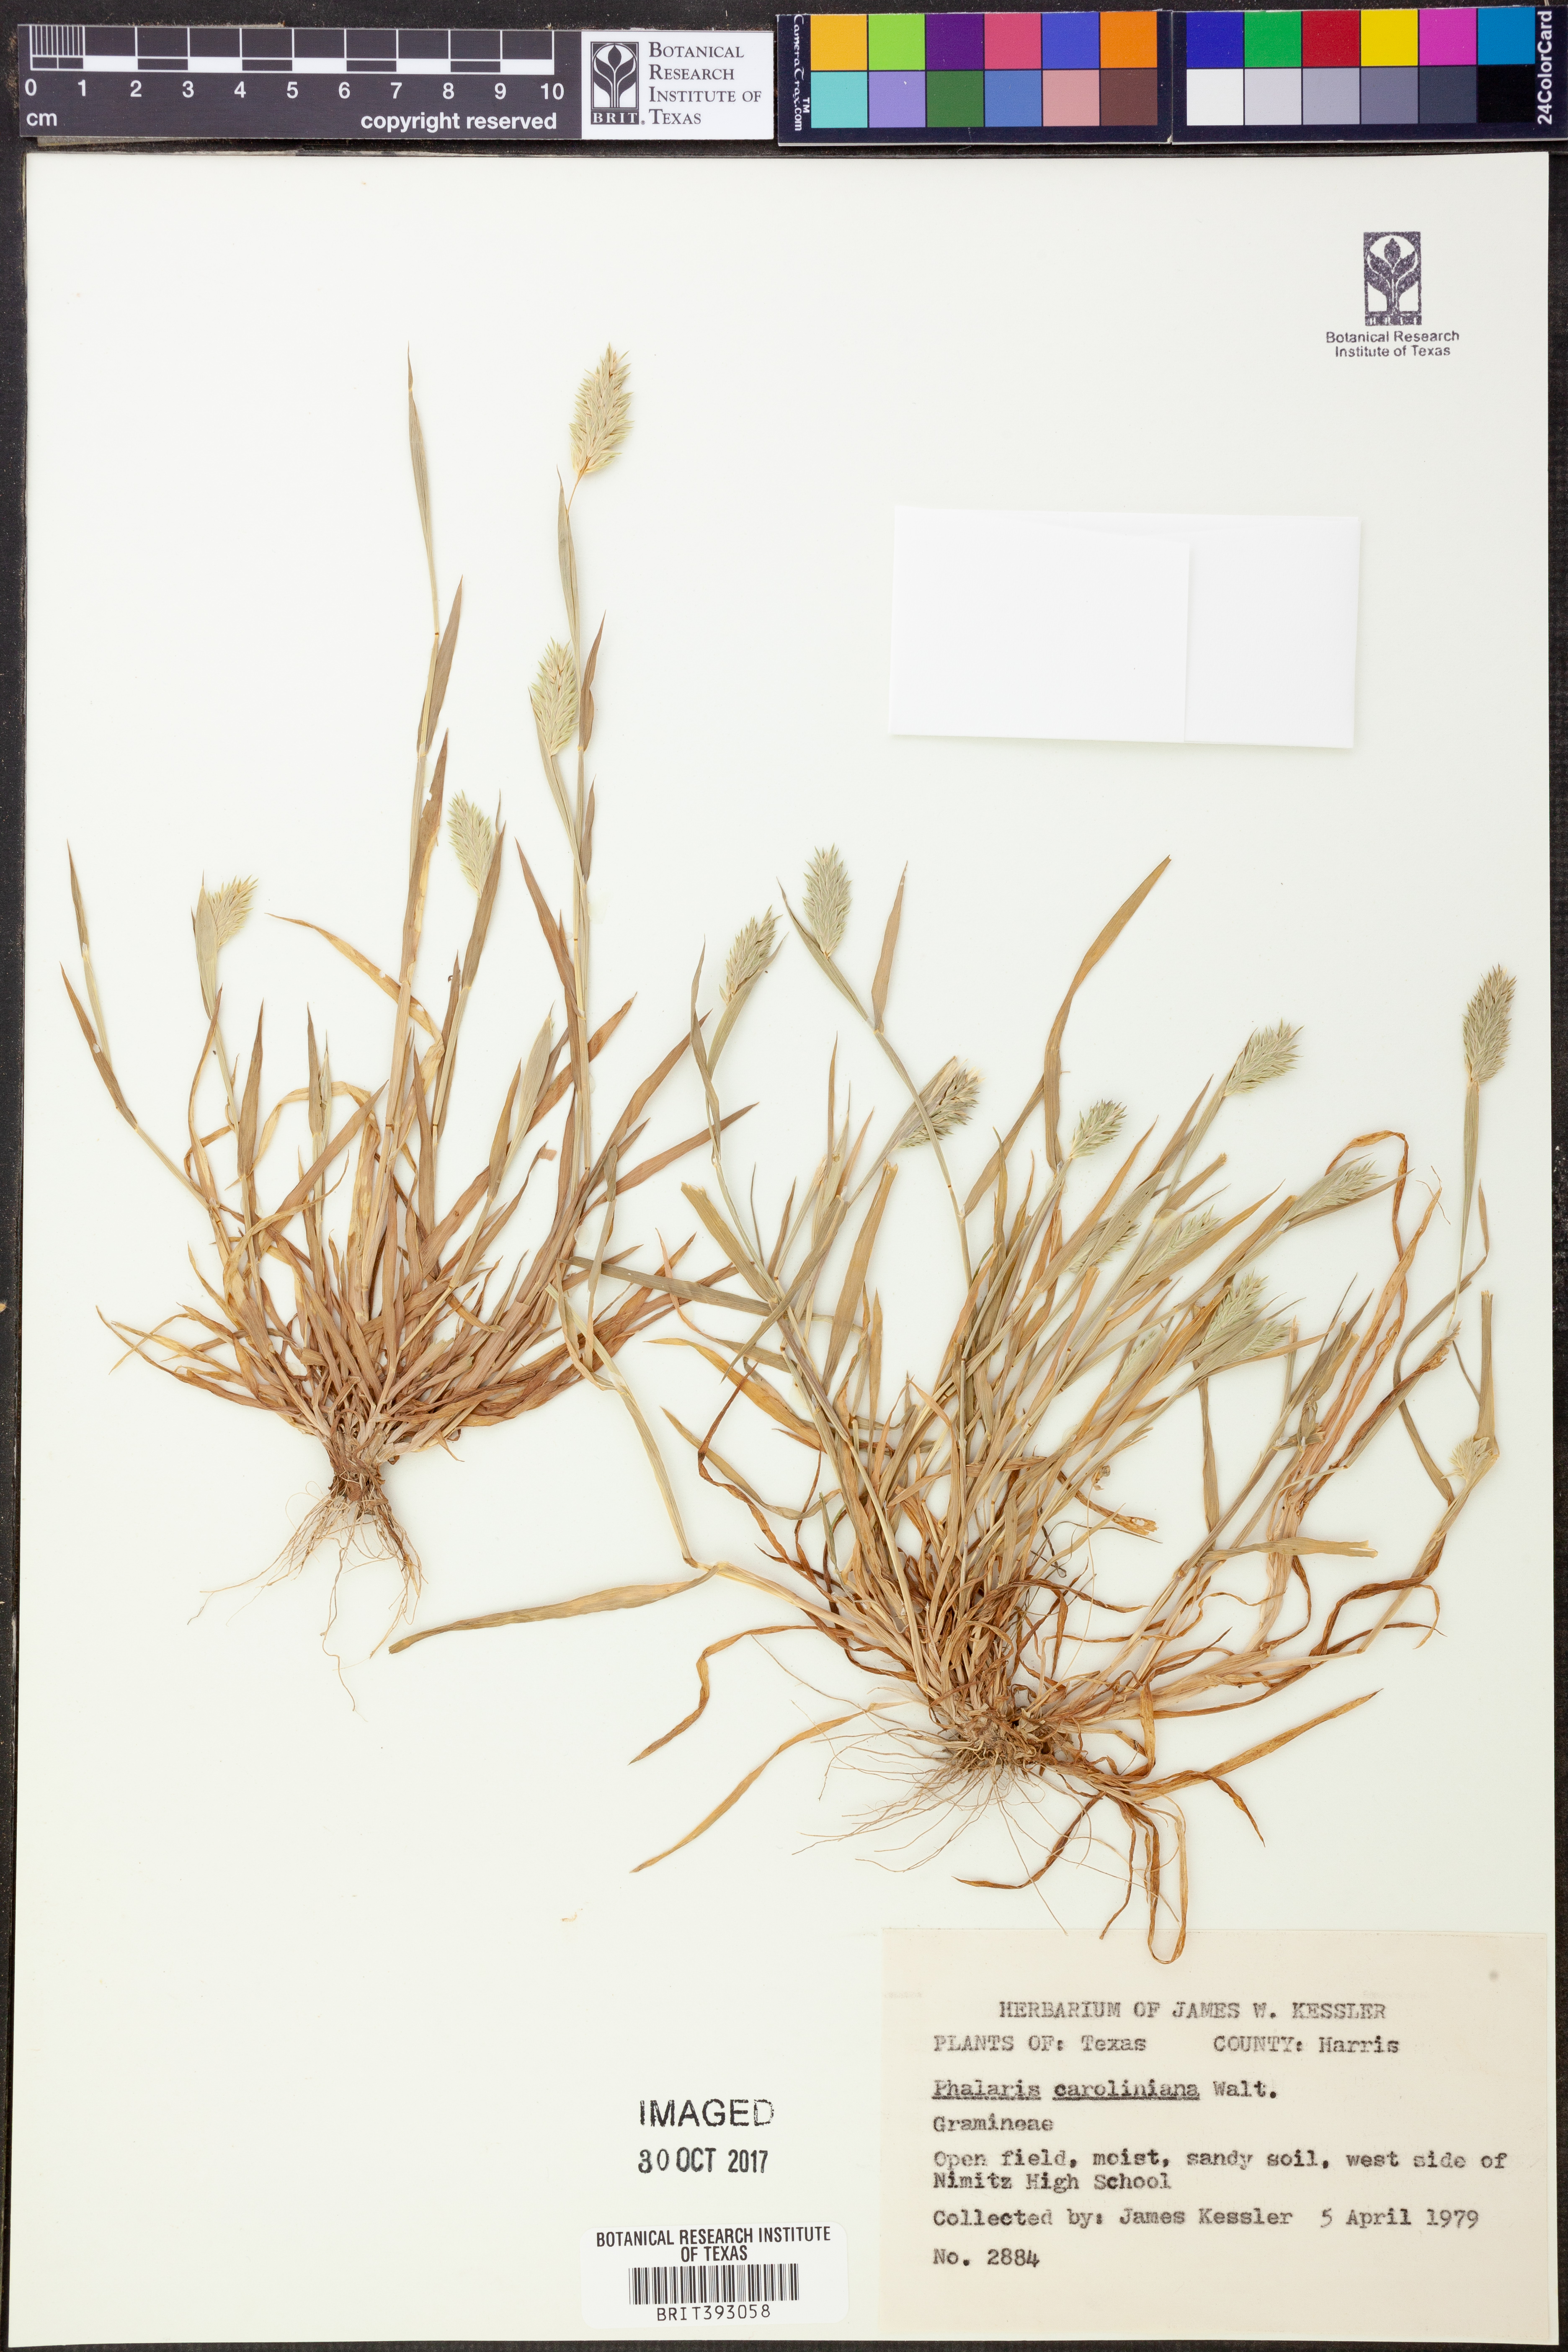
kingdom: Plantae
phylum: Tracheophyta
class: Liliopsida
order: Poales
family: Poaceae
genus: Phalaris
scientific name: Phalaris caroliniana
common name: May grass
